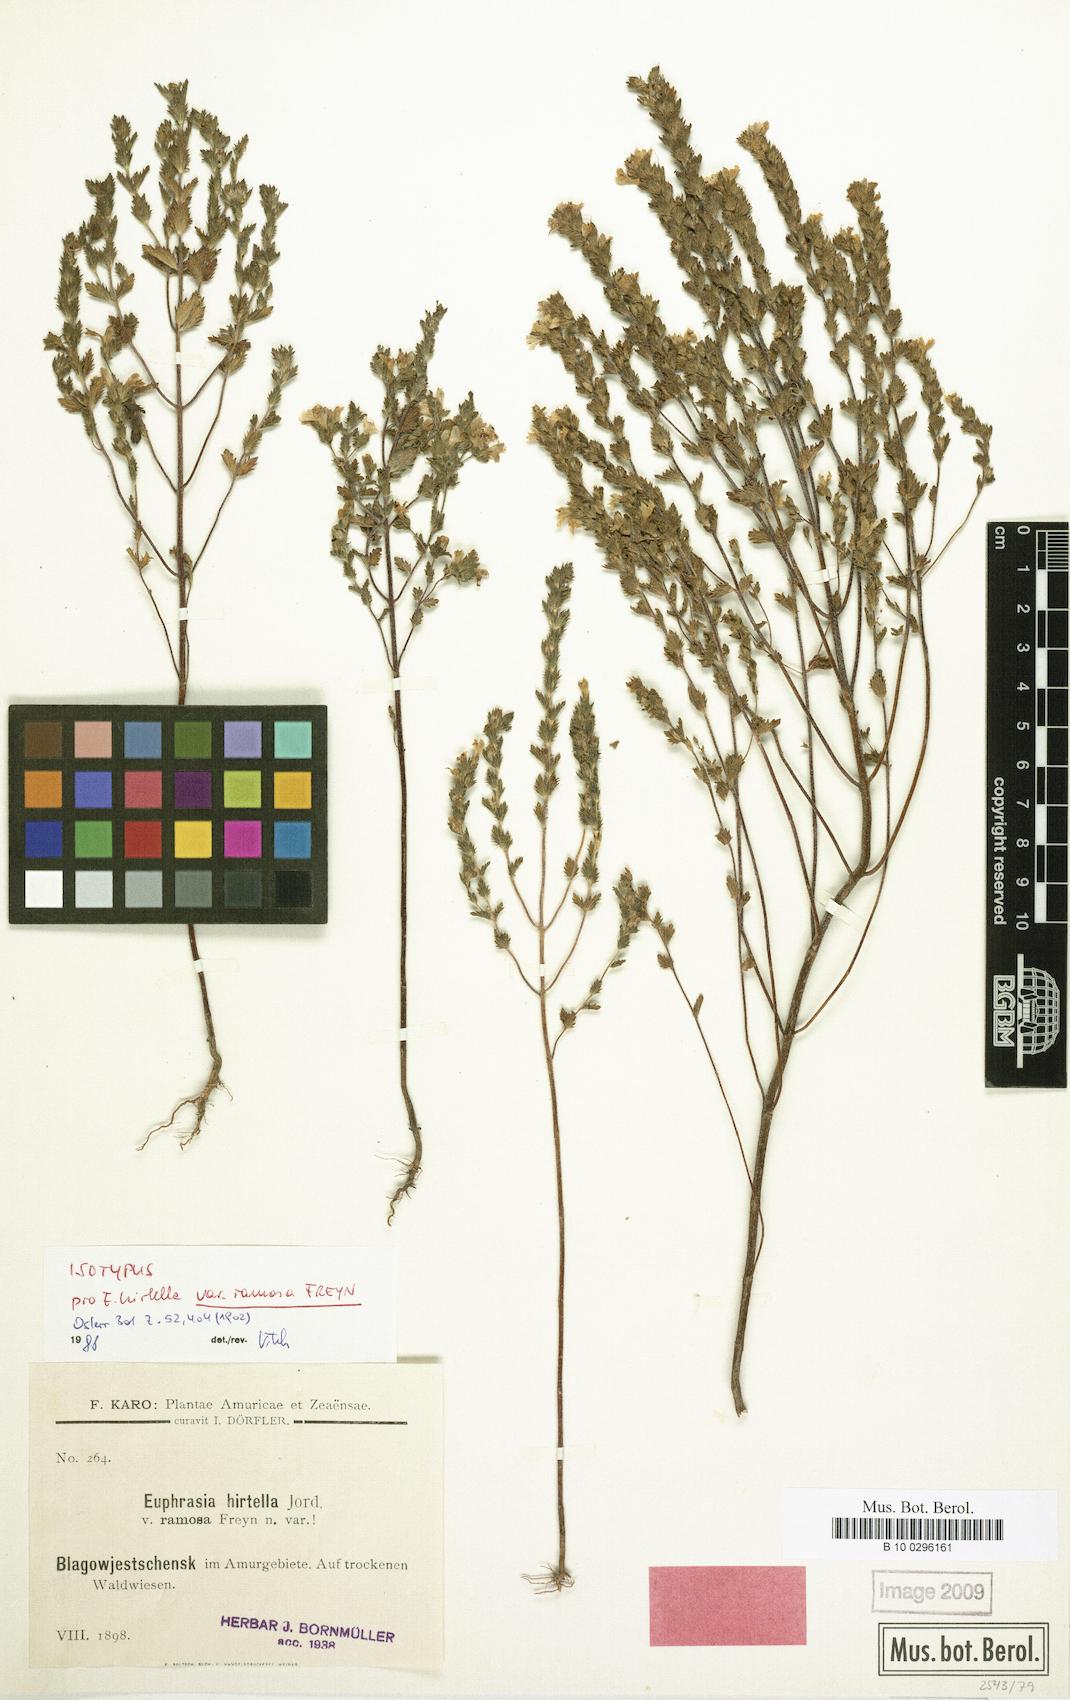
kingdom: Plantae
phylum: Tracheophyta
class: Magnoliopsida
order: Lamiales
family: Orobanchaceae
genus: Euphrasia
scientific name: Euphrasia amurensis
